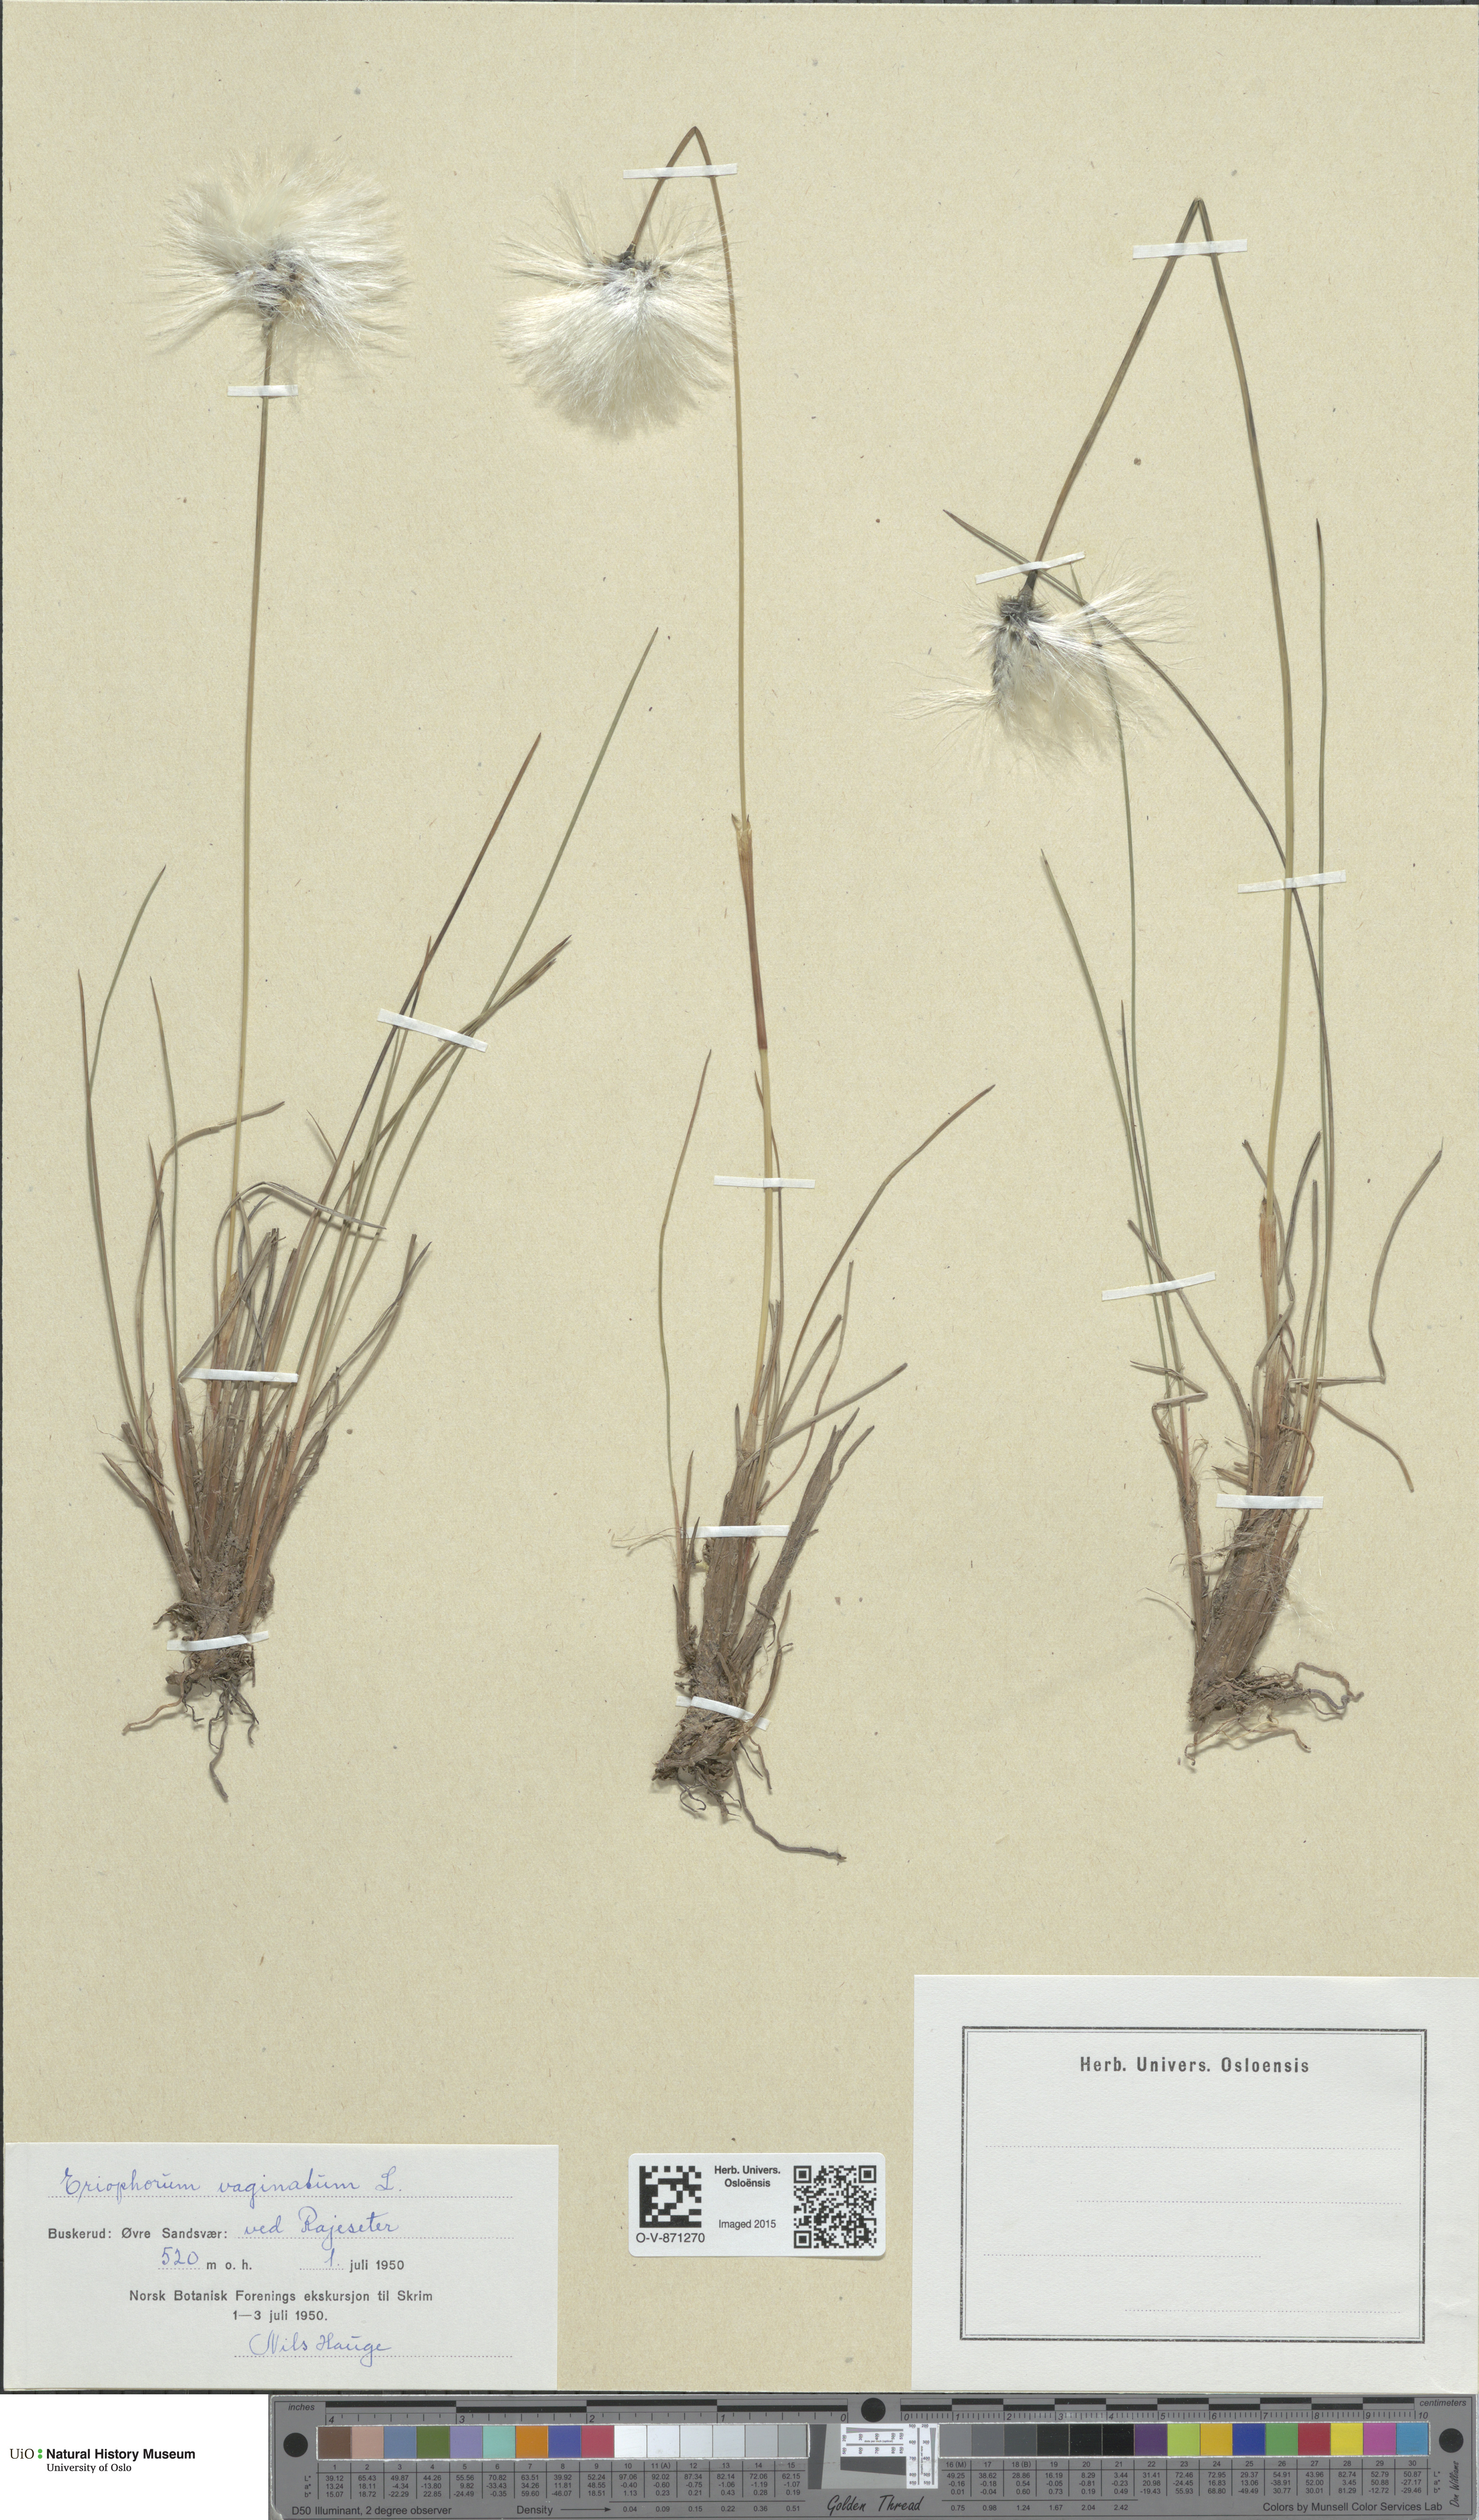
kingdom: Plantae
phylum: Tracheophyta
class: Liliopsida
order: Poales
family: Cyperaceae
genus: Eriophorum
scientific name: Eriophorum vaginatum
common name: Hare's-tail cottongrass
